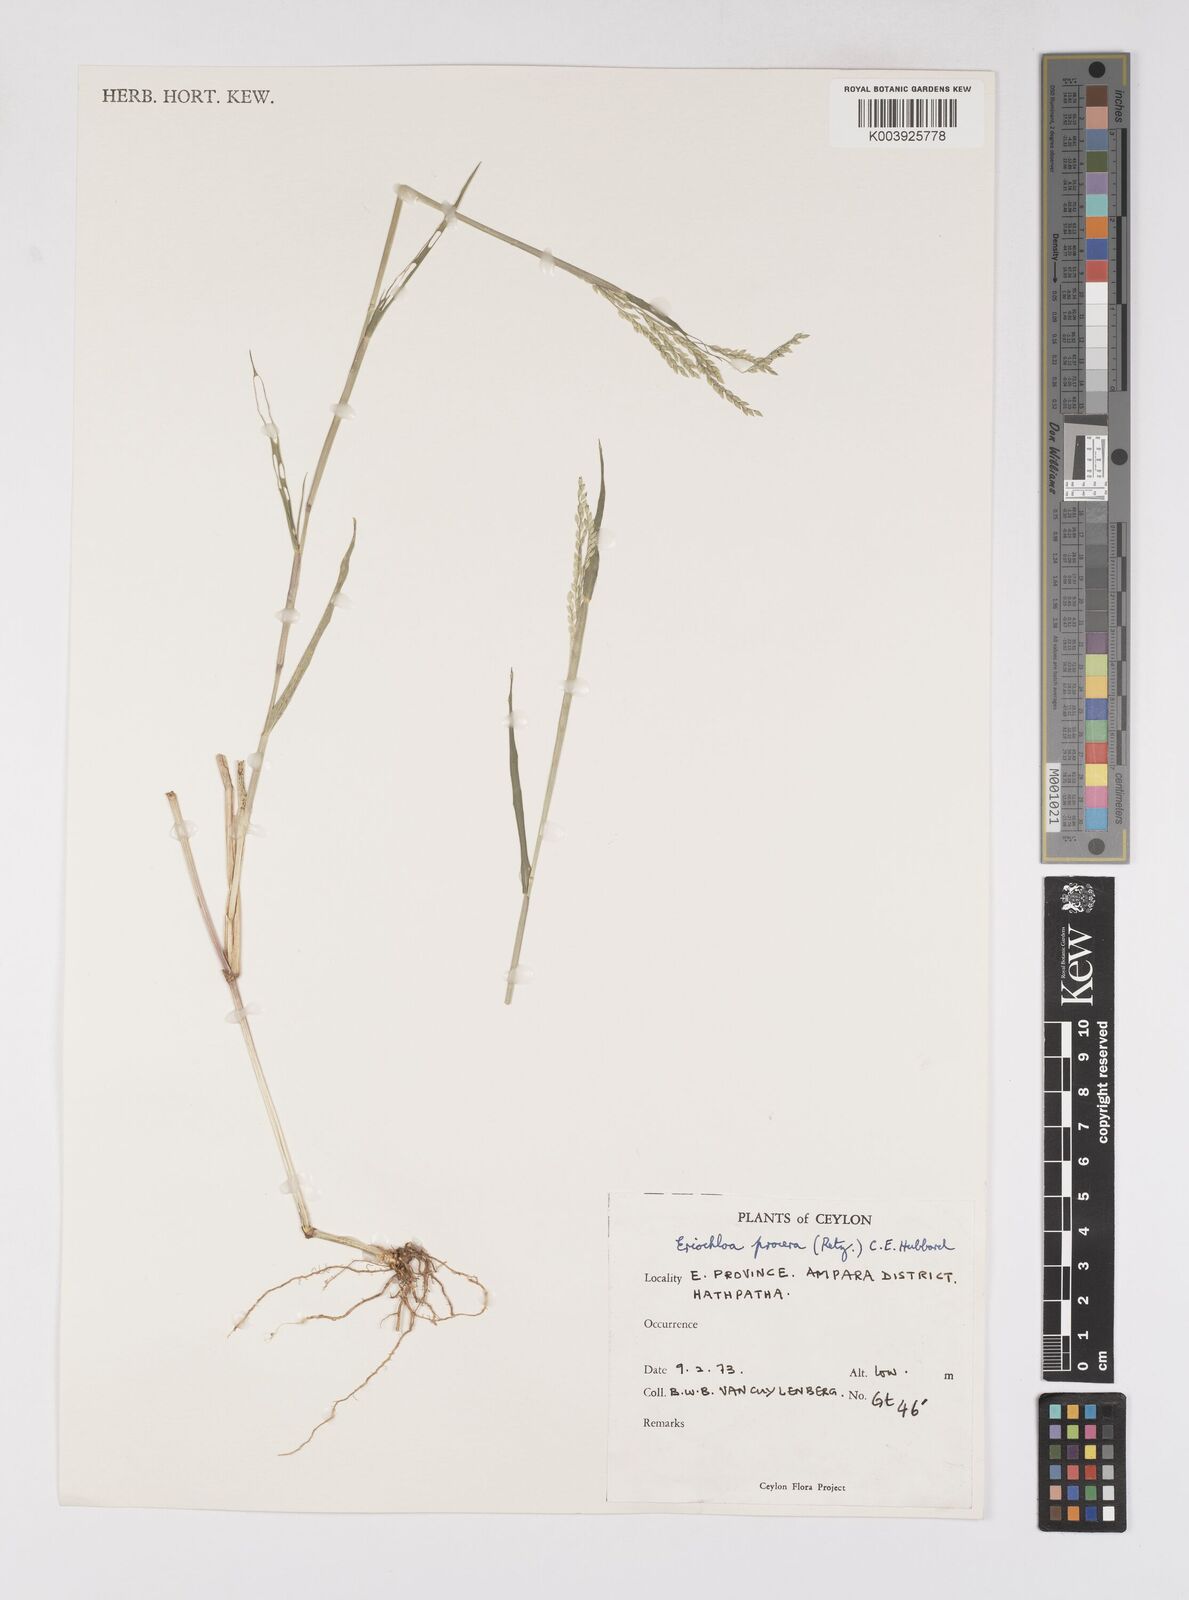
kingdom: Plantae
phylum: Tracheophyta
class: Liliopsida
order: Poales
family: Poaceae
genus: Eriochloa
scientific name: Eriochloa procera
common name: Spring grass
